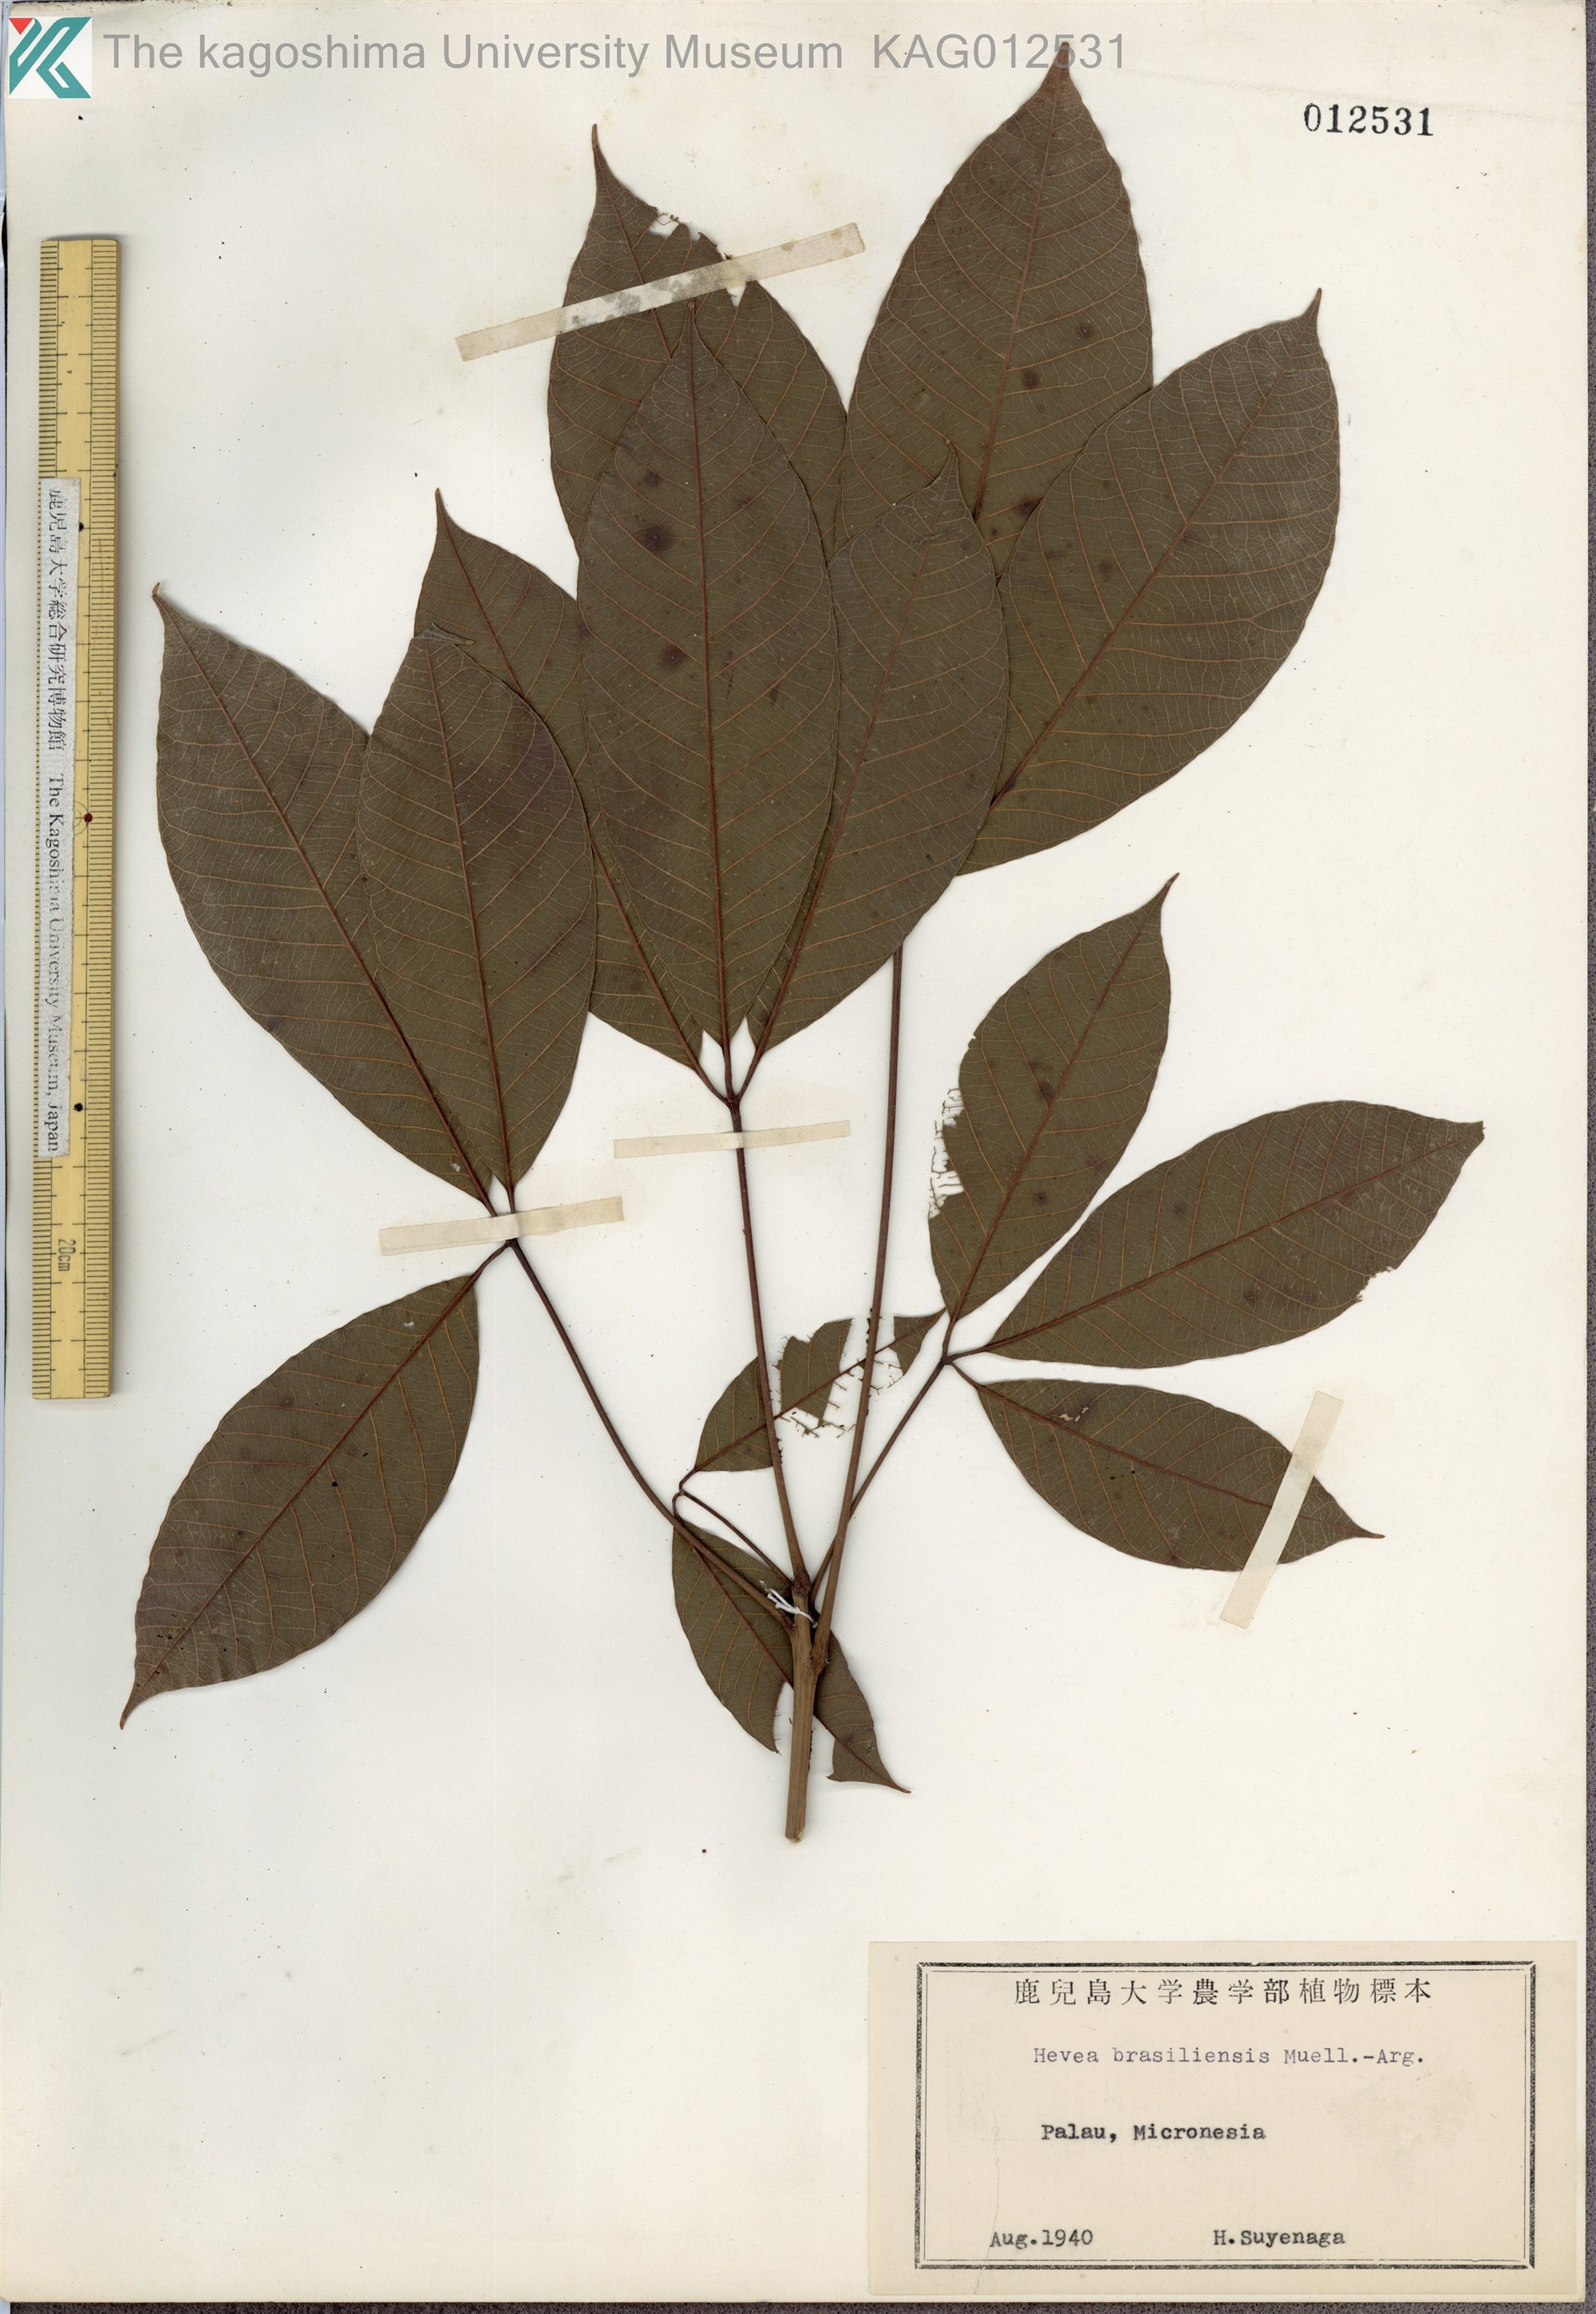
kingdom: Plantae
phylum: Tracheophyta
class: Magnoliopsida
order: Malpighiales
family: Euphorbiaceae
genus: Hevea
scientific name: Hevea brasiliensis
